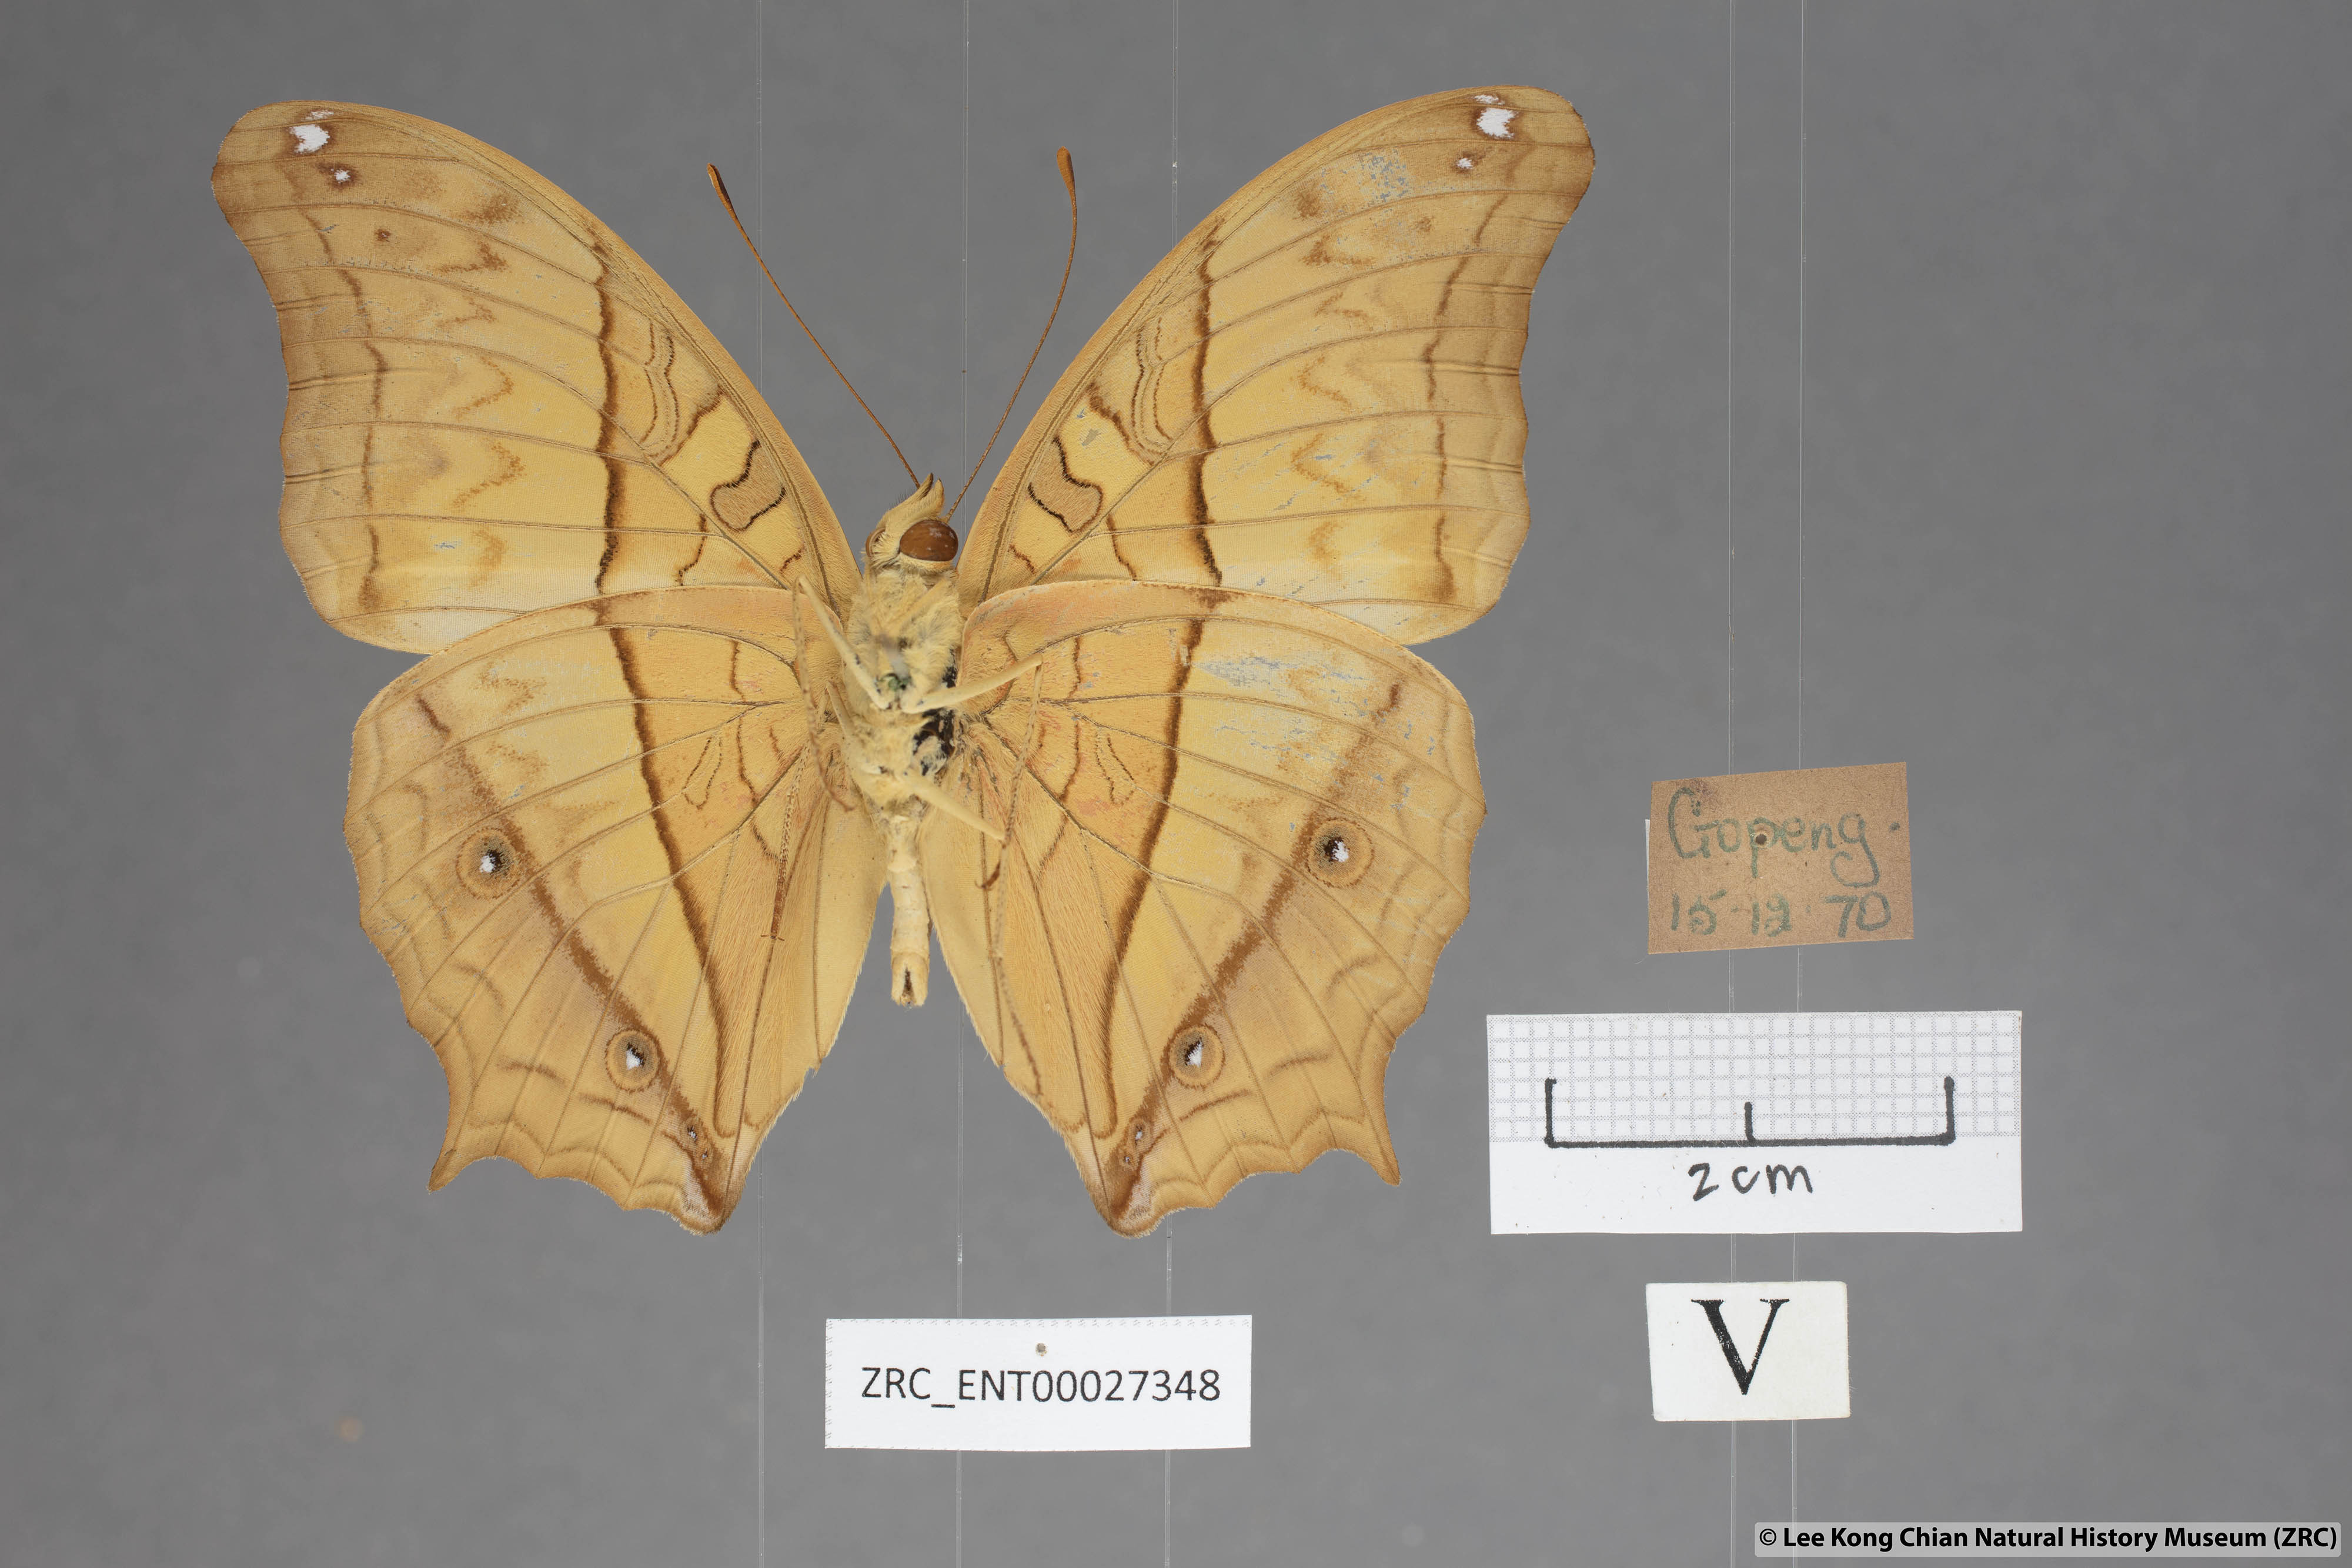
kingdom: Animalia
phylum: Arthropoda
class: Insecta
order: Lepidoptera
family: Nymphalidae
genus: Vindula
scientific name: Vindula deione
